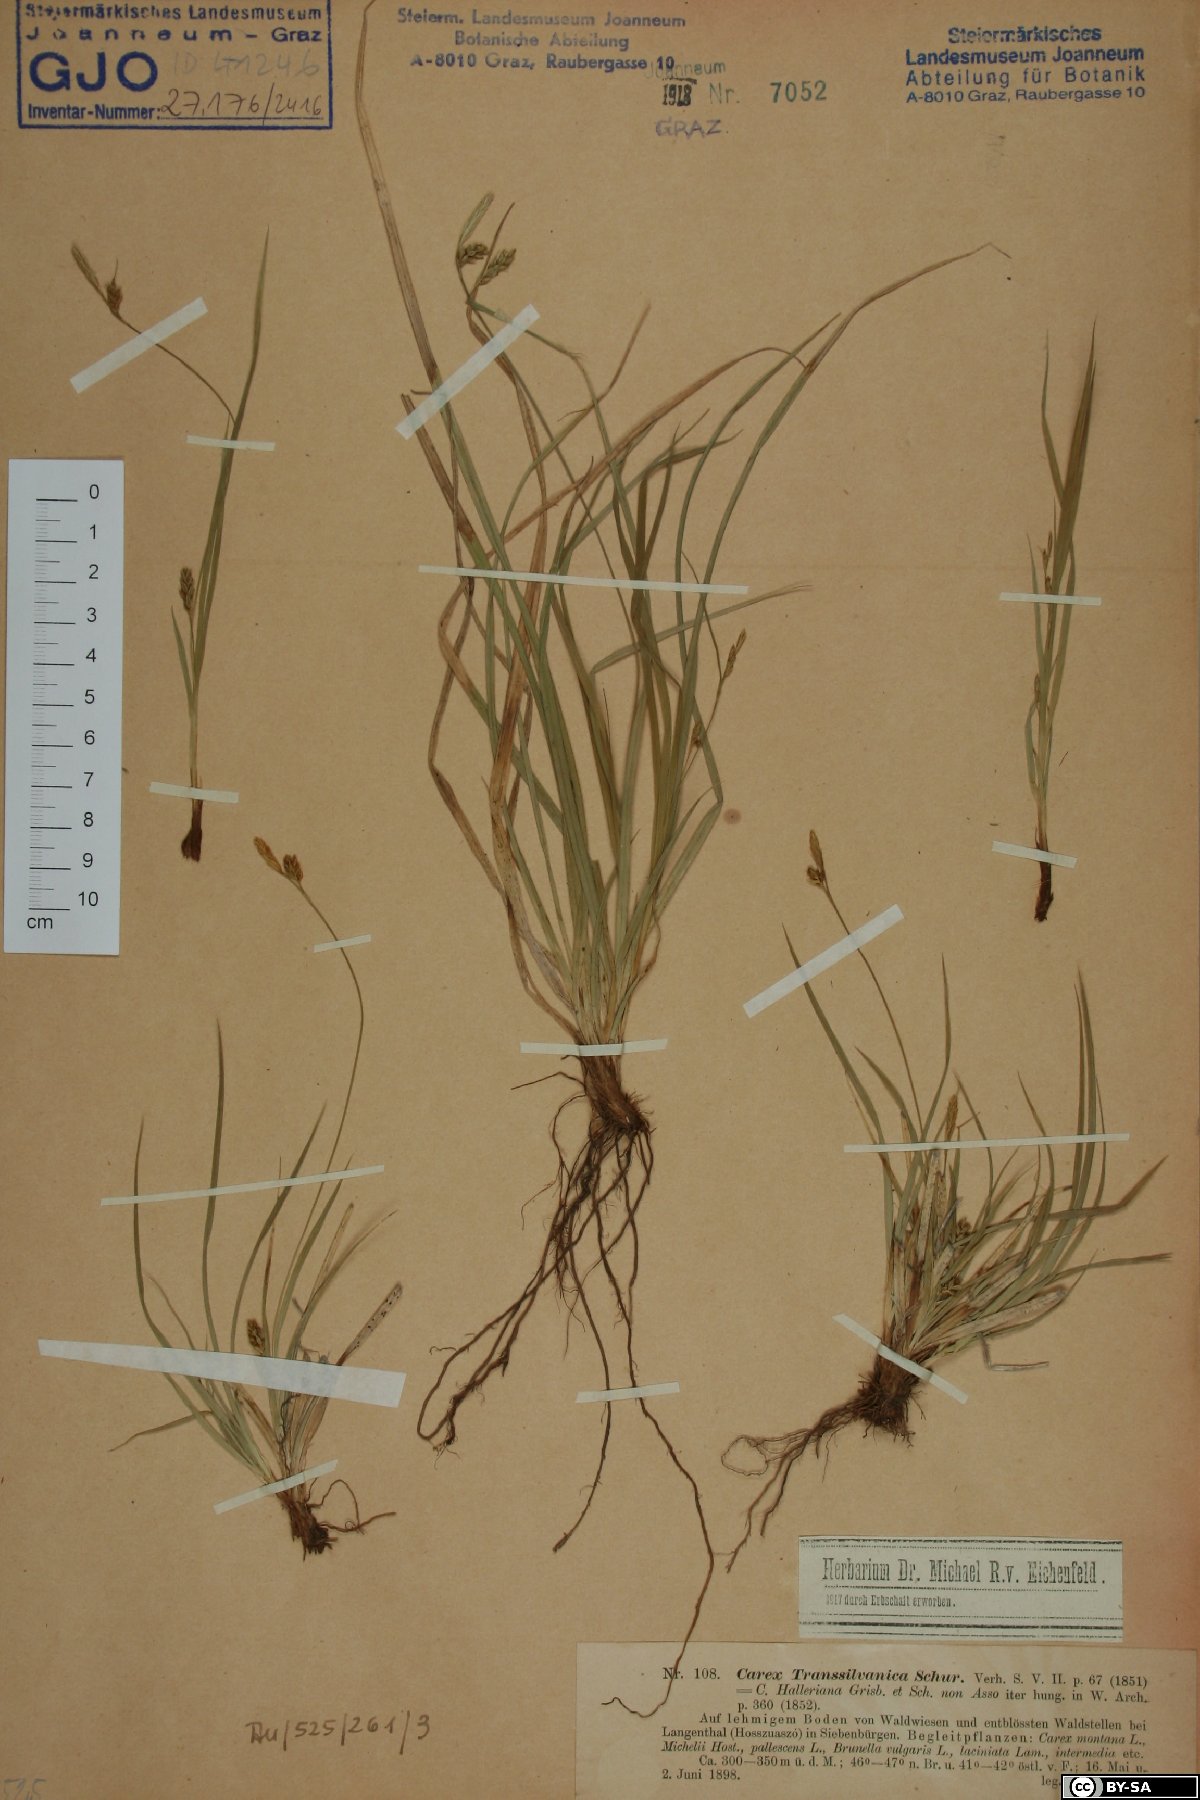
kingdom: Plantae
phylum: Tracheophyta
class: Liliopsida
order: Poales
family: Cyperaceae
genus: Carex
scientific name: Carex depressa
